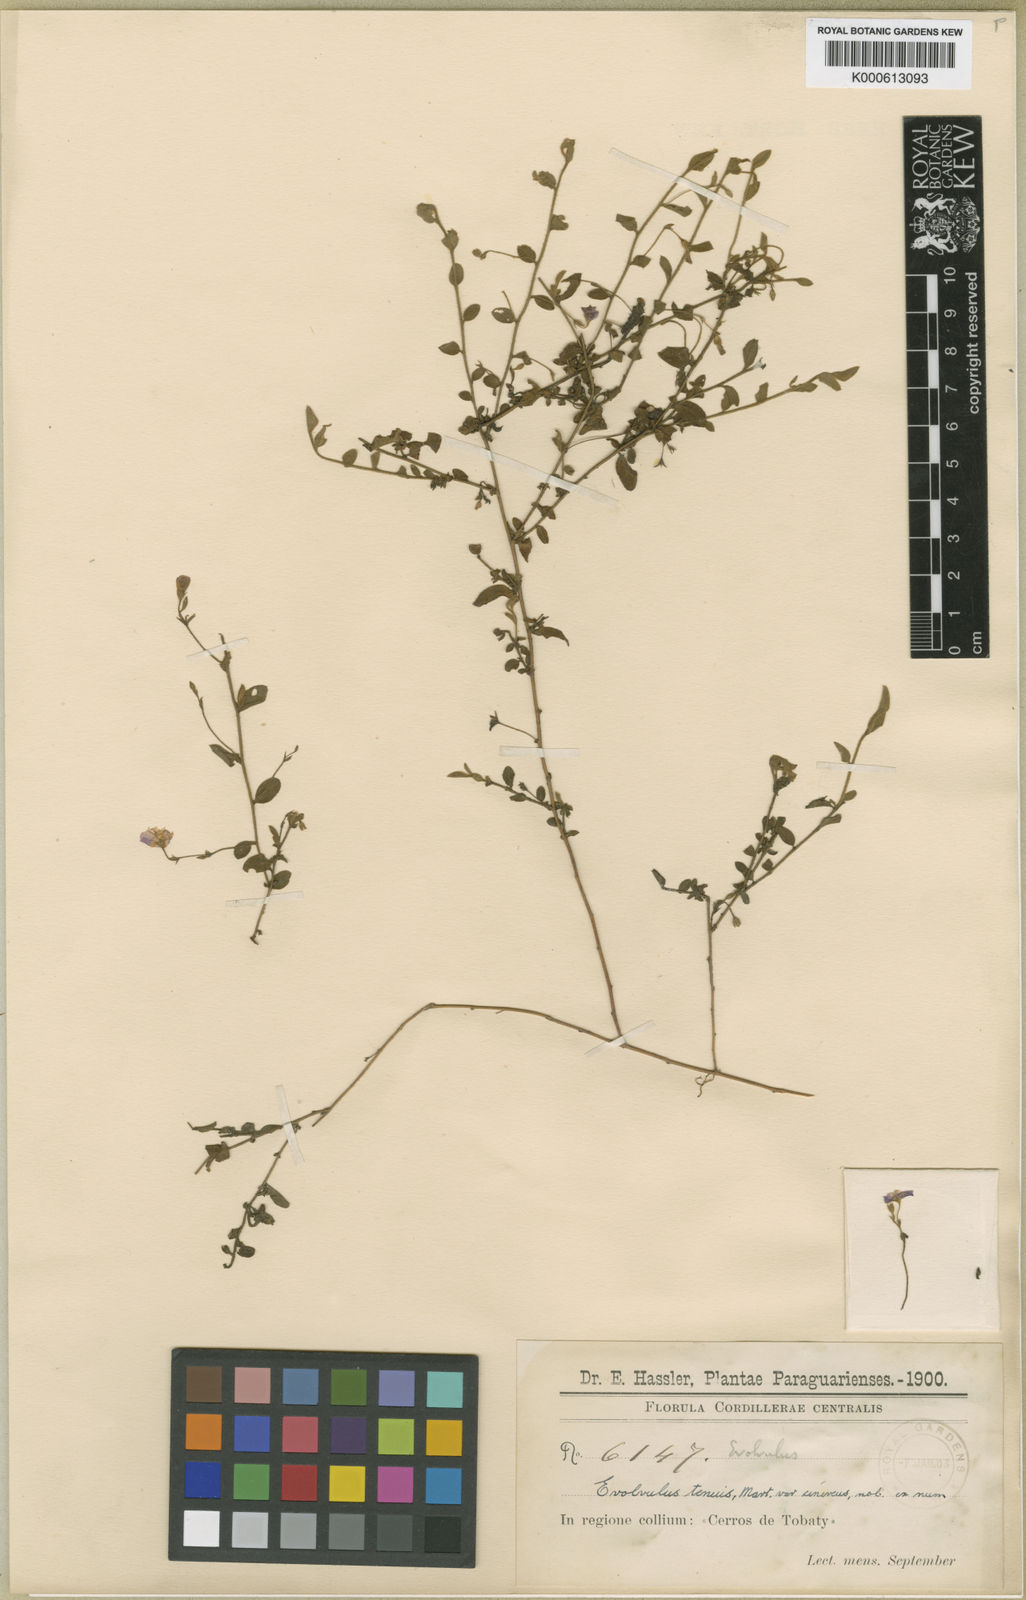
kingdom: Plantae
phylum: Tracheophyta
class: Magnoliopsida
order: Solanales
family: Convolvulaceae
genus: Evolvulus
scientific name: Evolvulus tenuis
